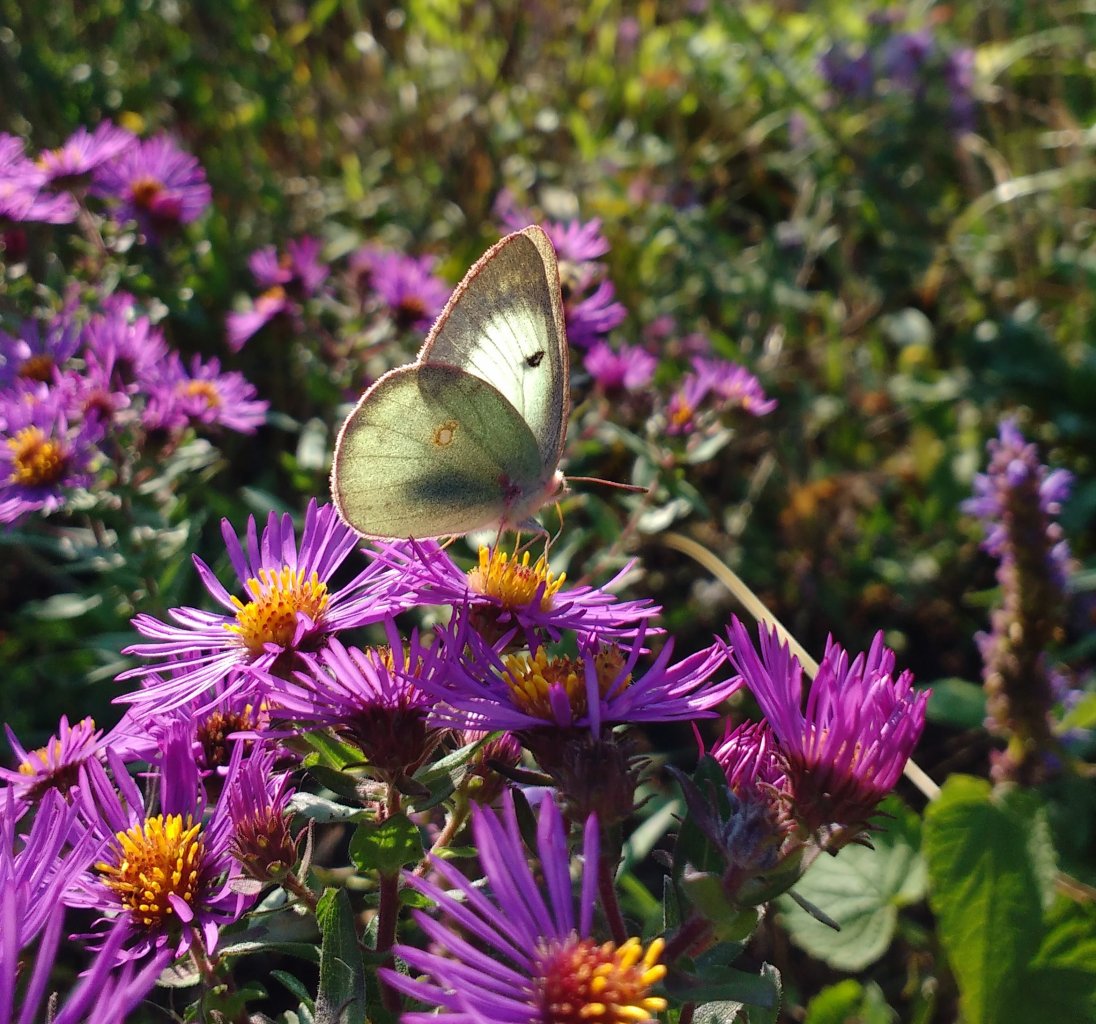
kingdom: Animalia
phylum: Arthropoda
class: Insecta
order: Lepidoptera
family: Pieridae
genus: Colias
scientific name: Colias philodice
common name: Clouded Sulphur
